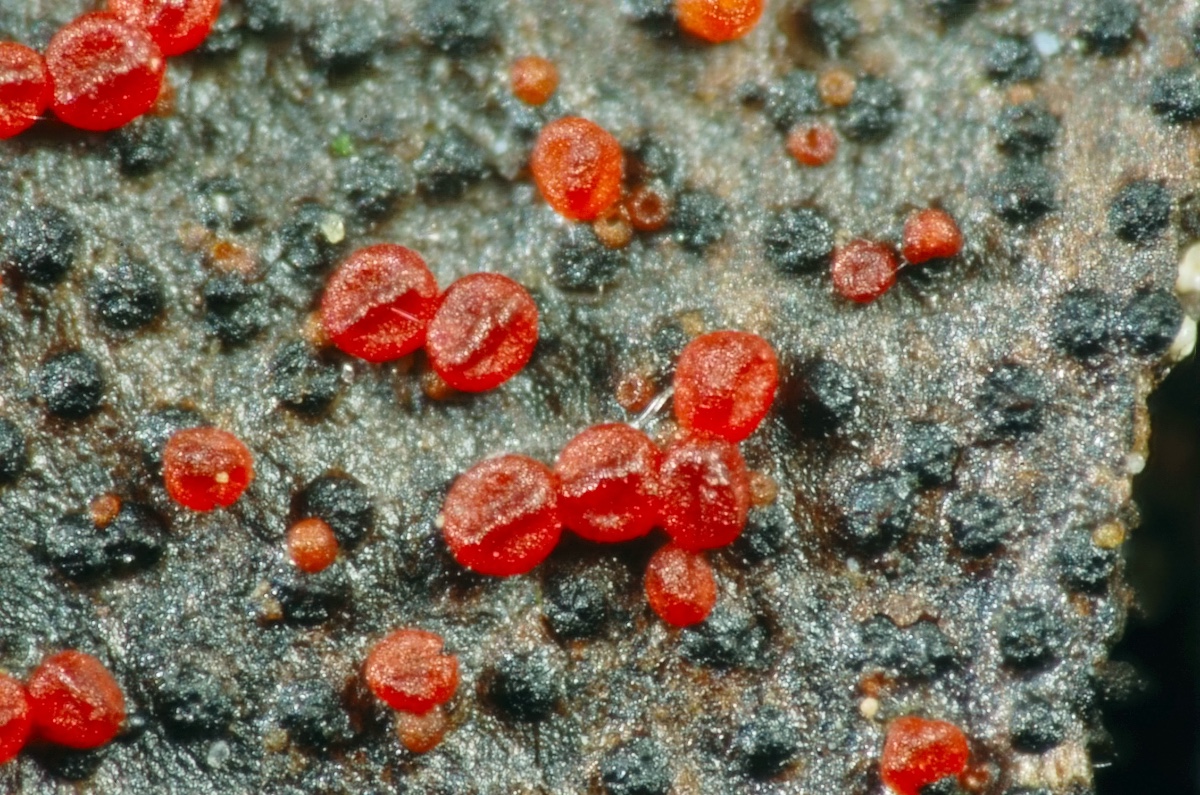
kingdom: Fungi
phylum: Ascomycota
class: Sordariomycetes
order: Hypocreales
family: Nectriaceae
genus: Dialonectria
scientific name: Dialonectria episphaeria
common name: kulskorpe-cinnobersvamp
